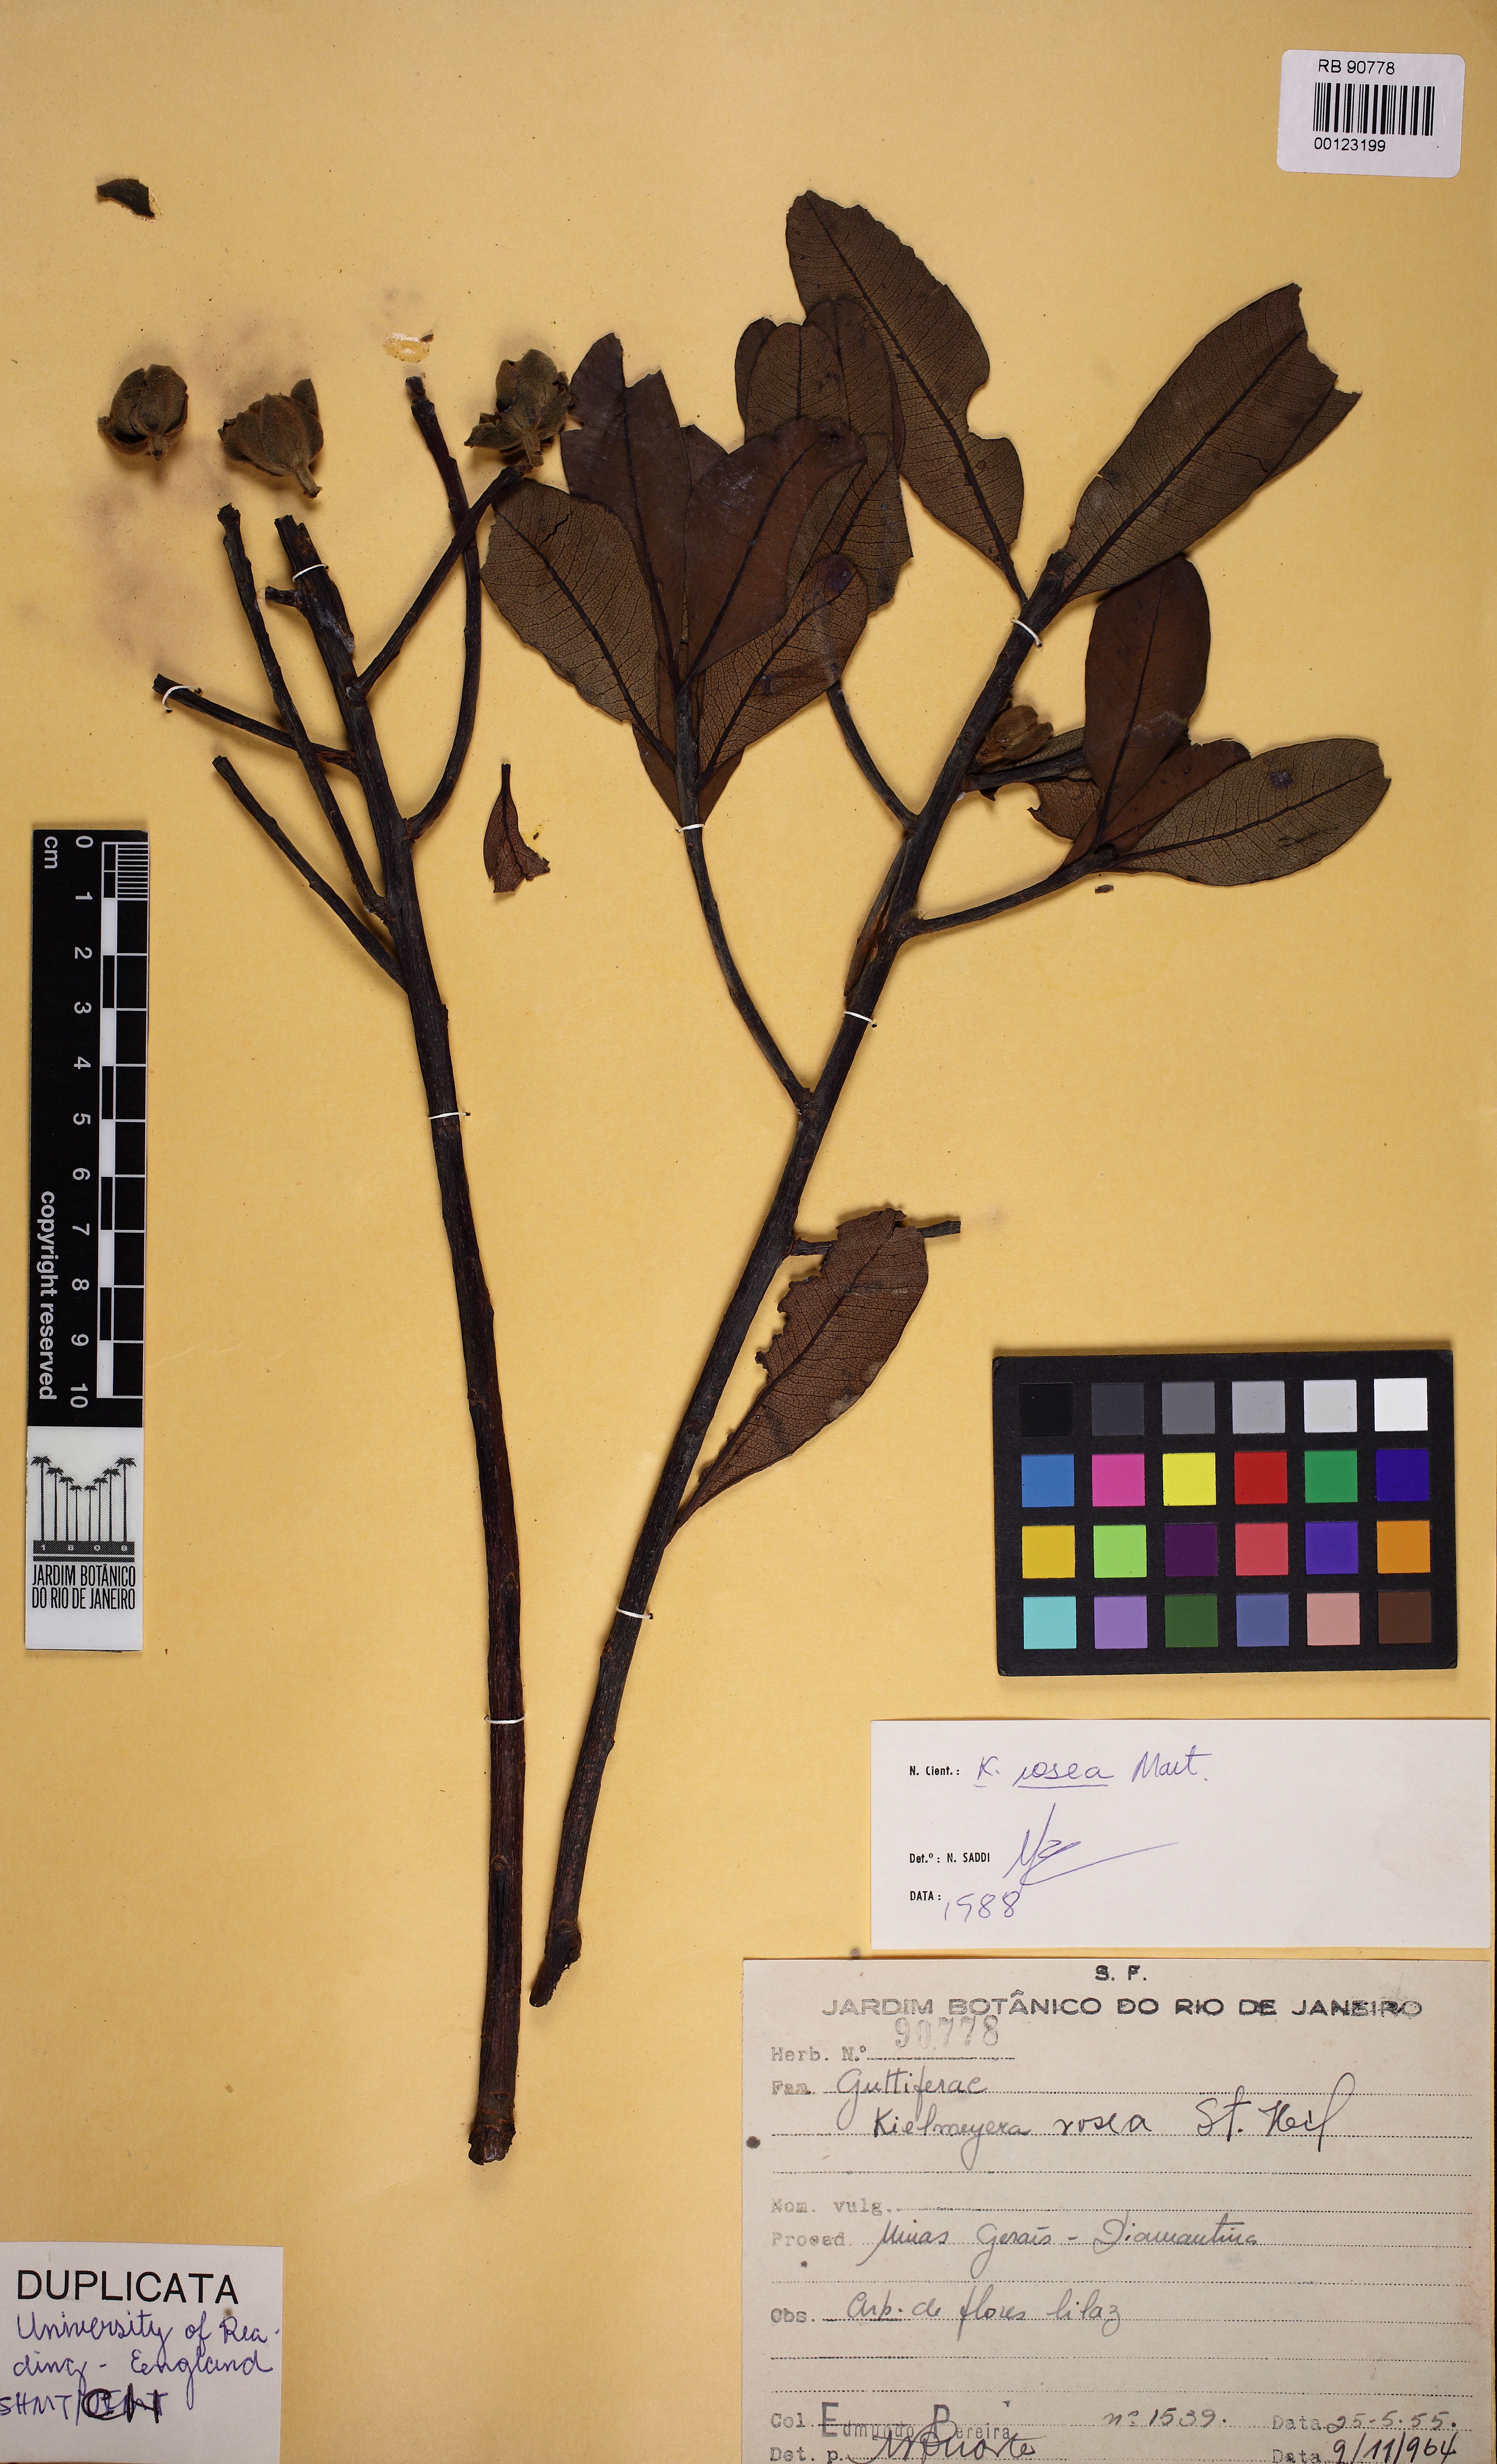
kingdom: Plantae
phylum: Tracheophyta
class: Magnoliopsida
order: Malpighiales
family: Calophyllaceae
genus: Kielmeyera
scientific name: Kielmeyera rosea
